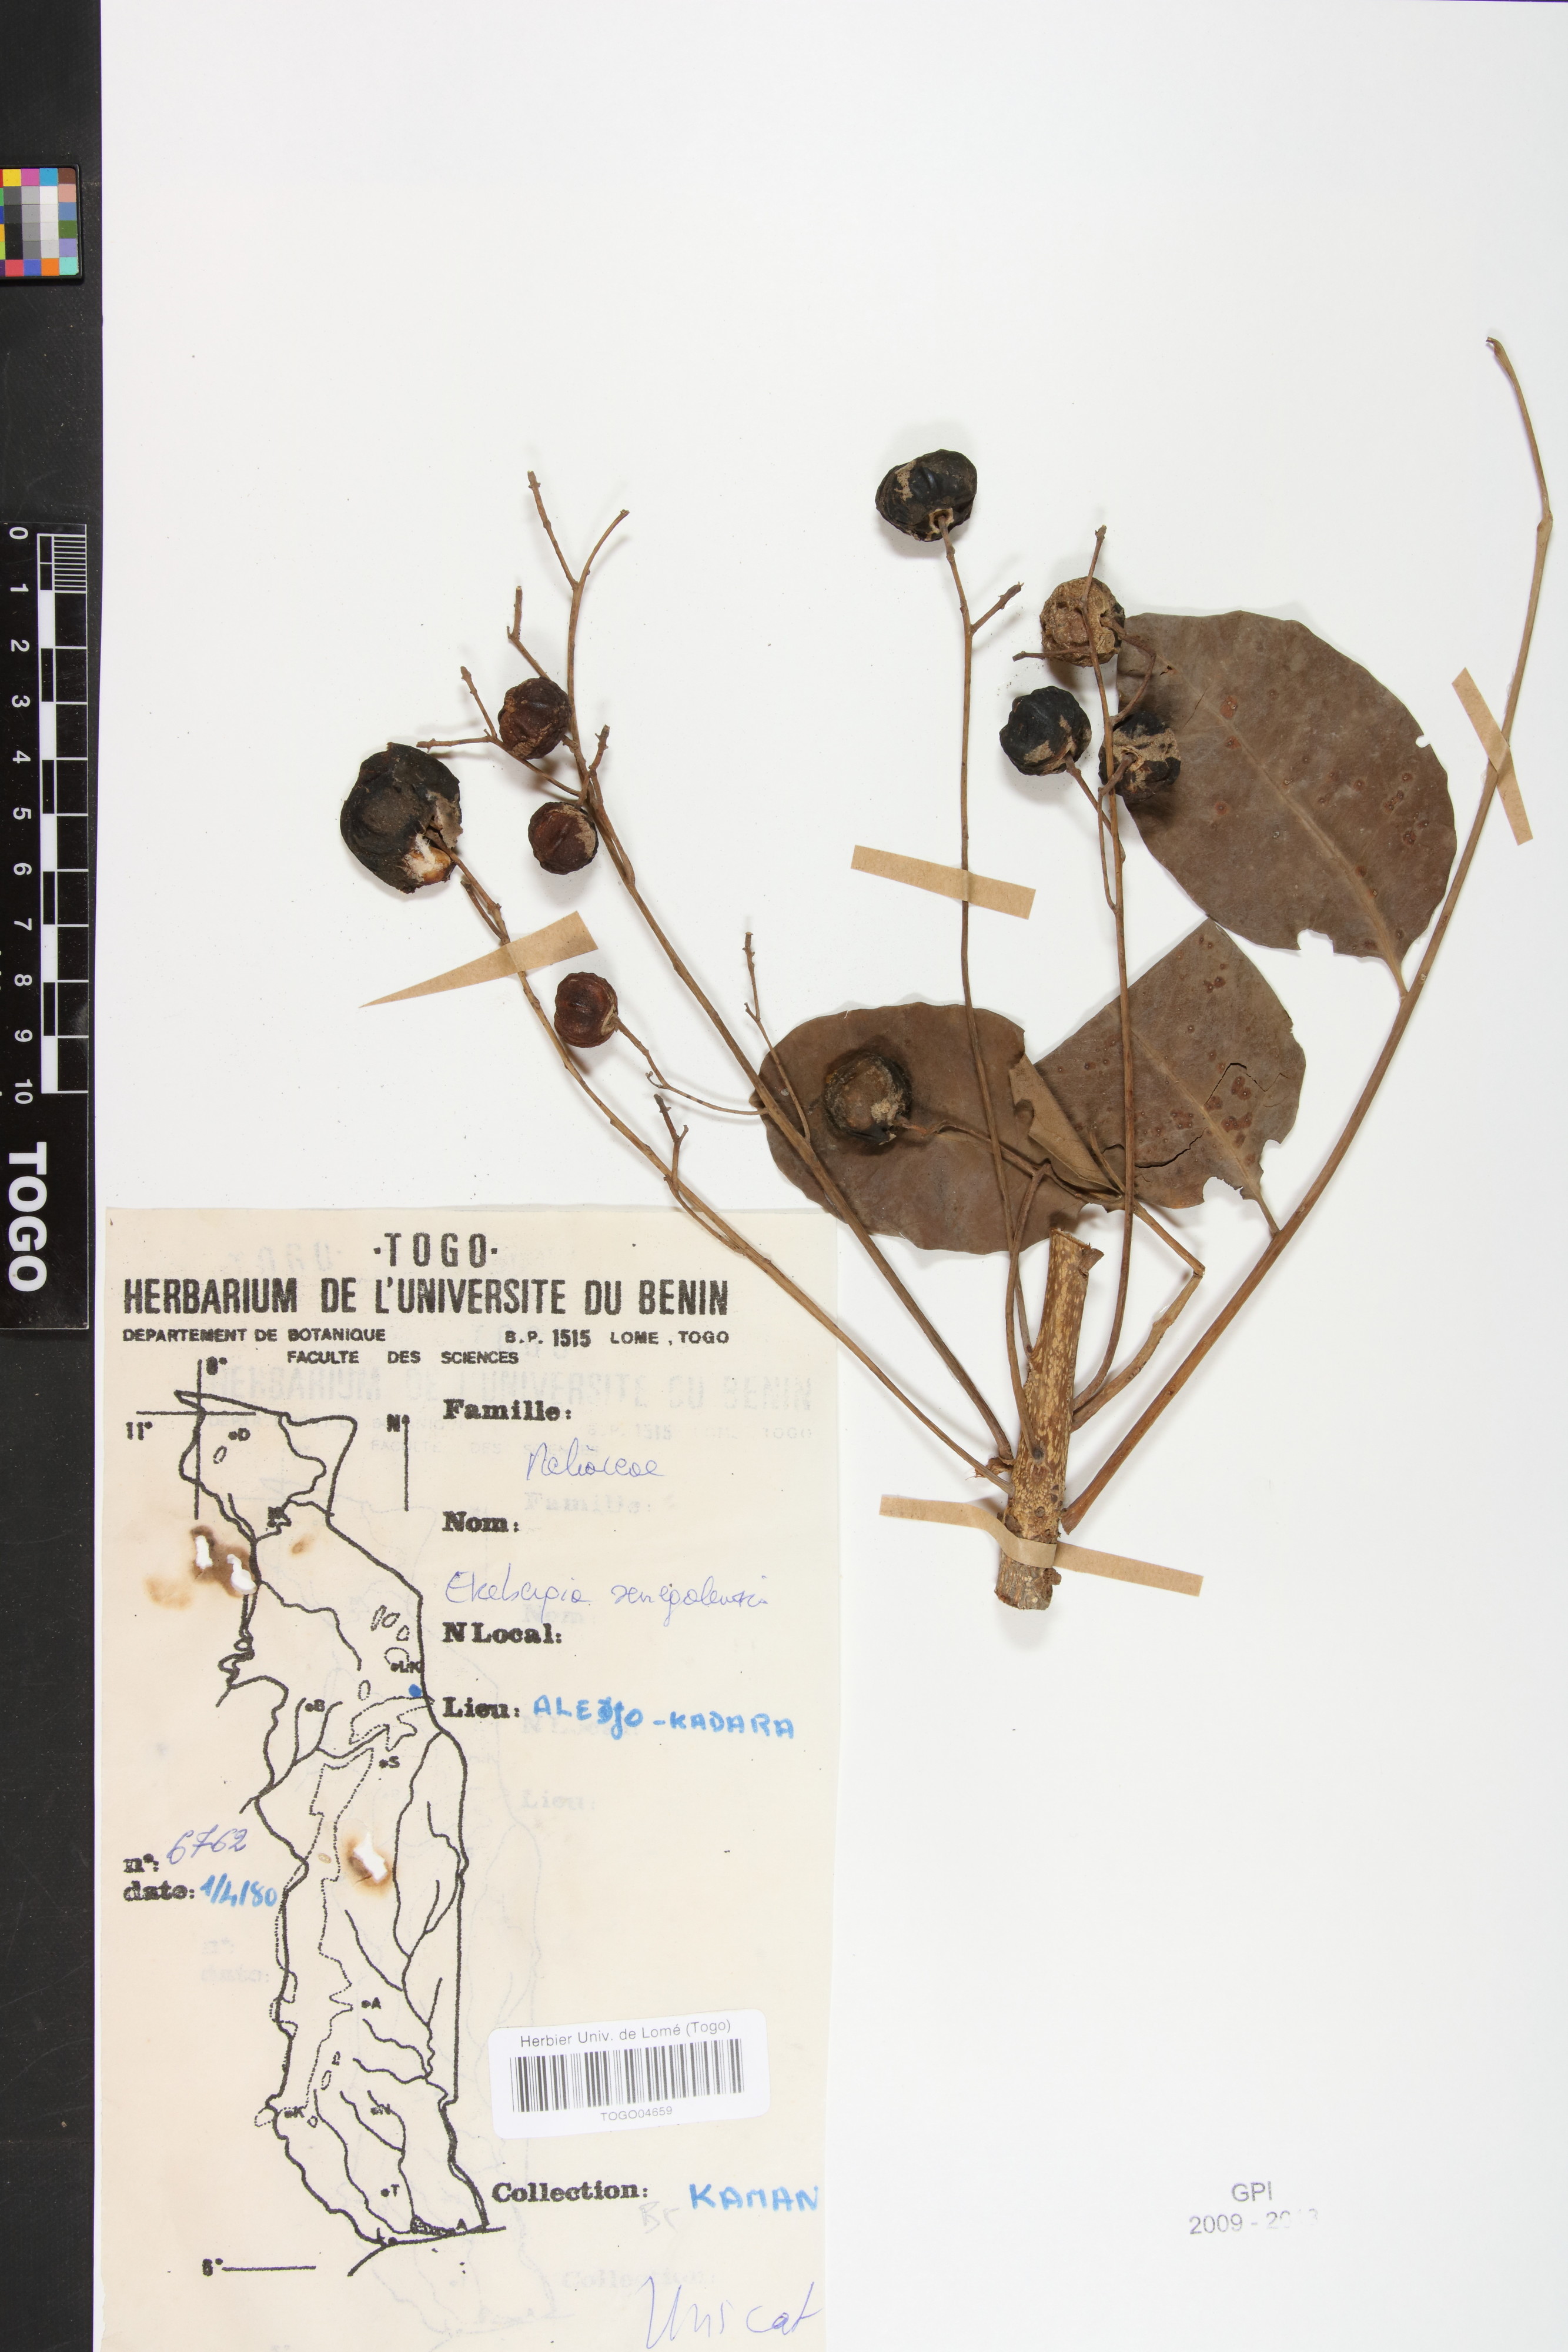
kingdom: Plantae
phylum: Tracheophyta
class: Magnoliopsida
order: Sapindales
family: Meliaceae
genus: Ekebergia
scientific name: Ekebergia capensis
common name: Cape-ash
